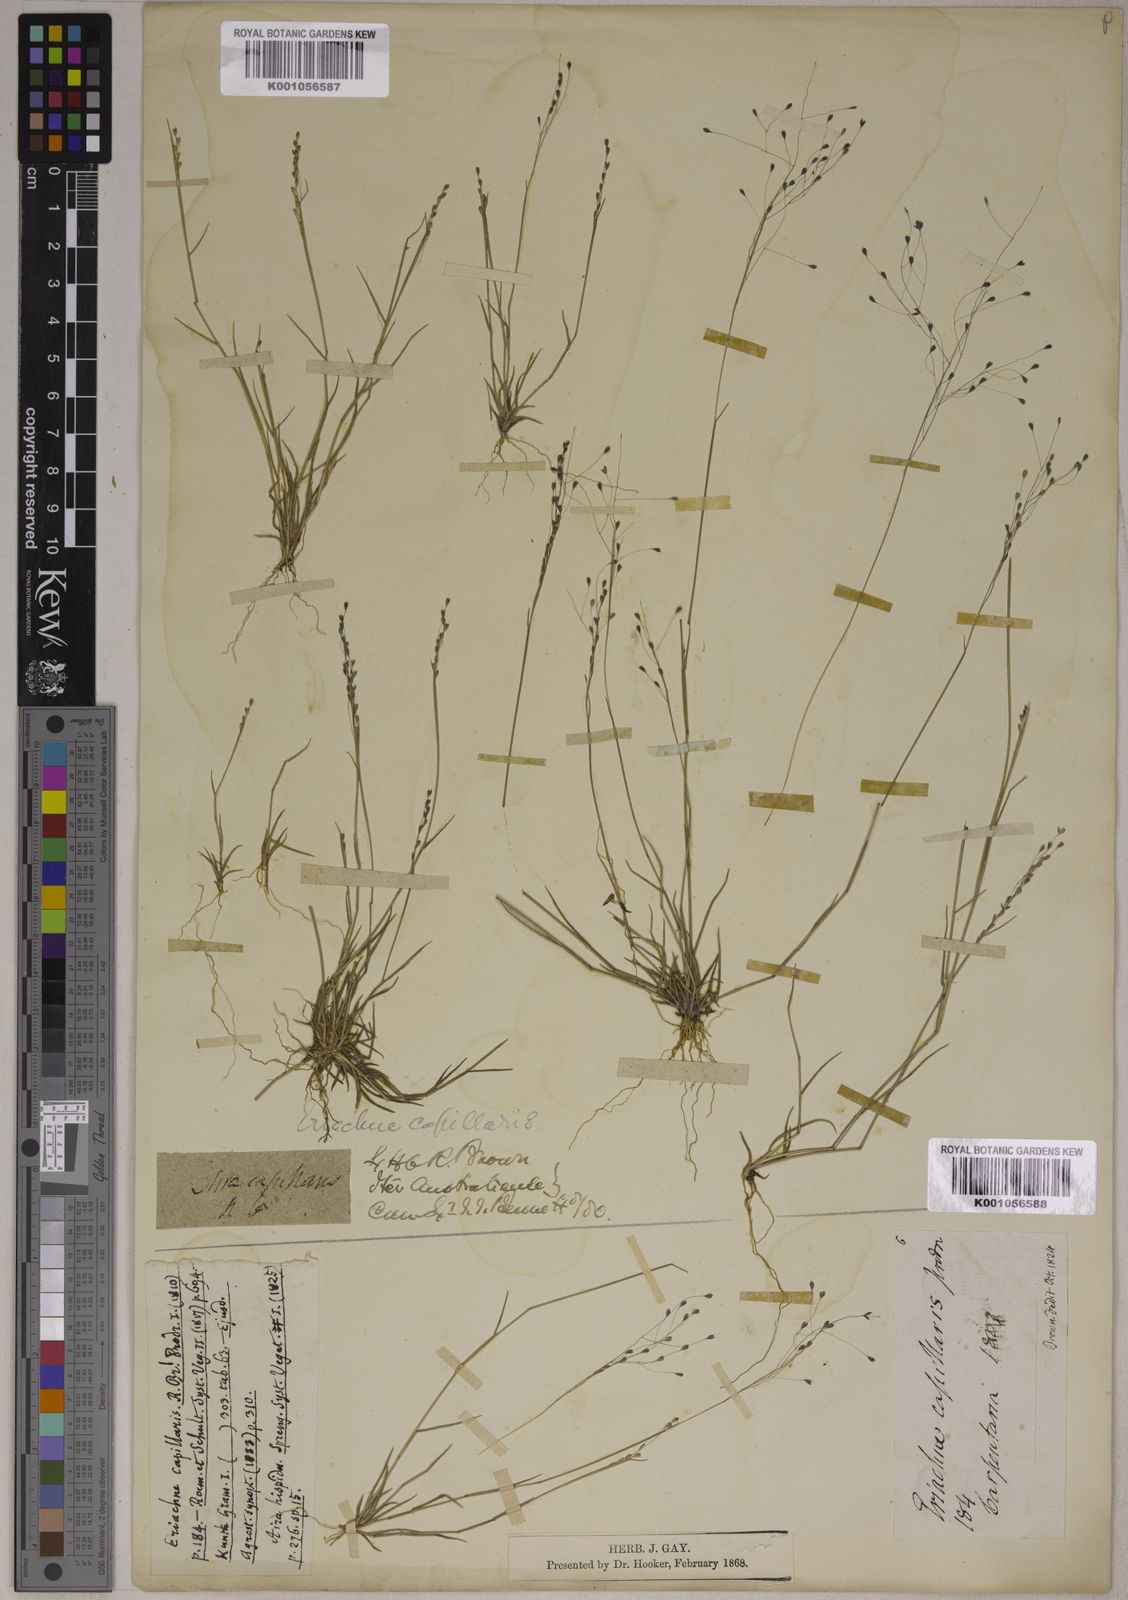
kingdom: Plantae
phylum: Tracheophyta
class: Liliopsida
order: Poales
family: Poaceae
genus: Eriachne
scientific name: Eriachne capillaris
